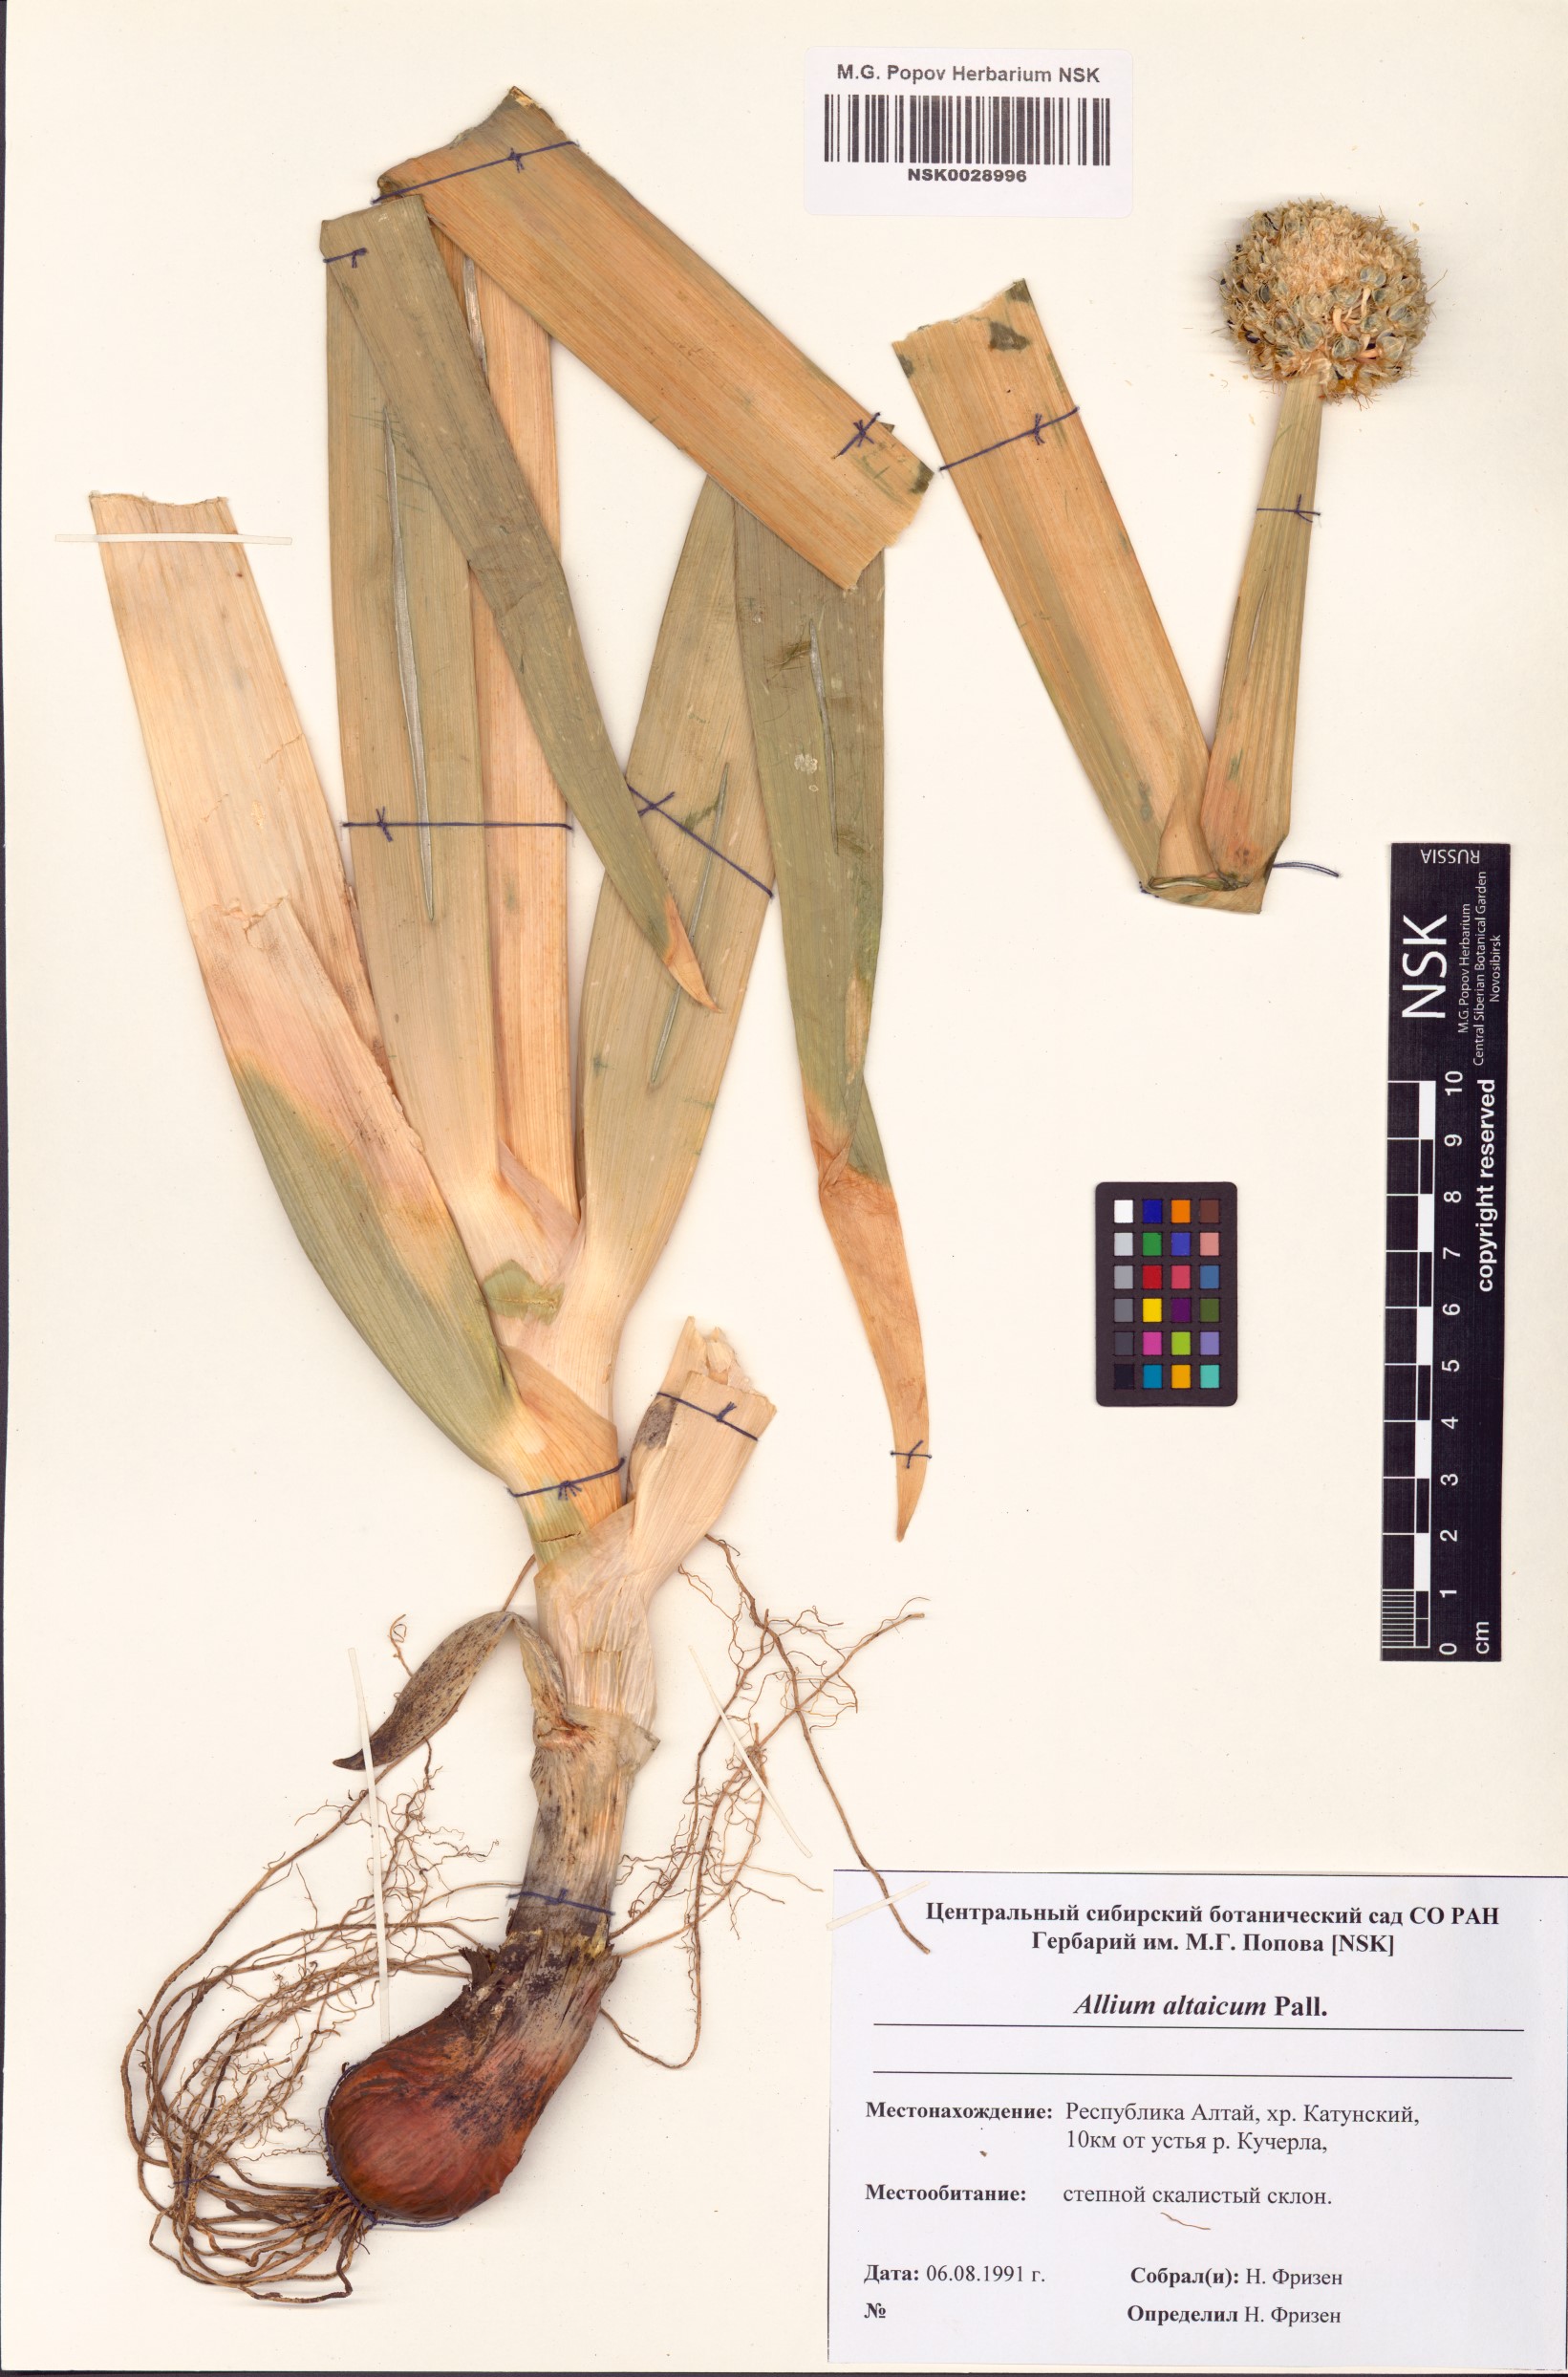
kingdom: Plantae
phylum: Tracheophyta
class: Liliopsida
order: Asparagales
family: Amaryllidaceae
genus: Allium
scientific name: Allium altaicum
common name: Altai onion
